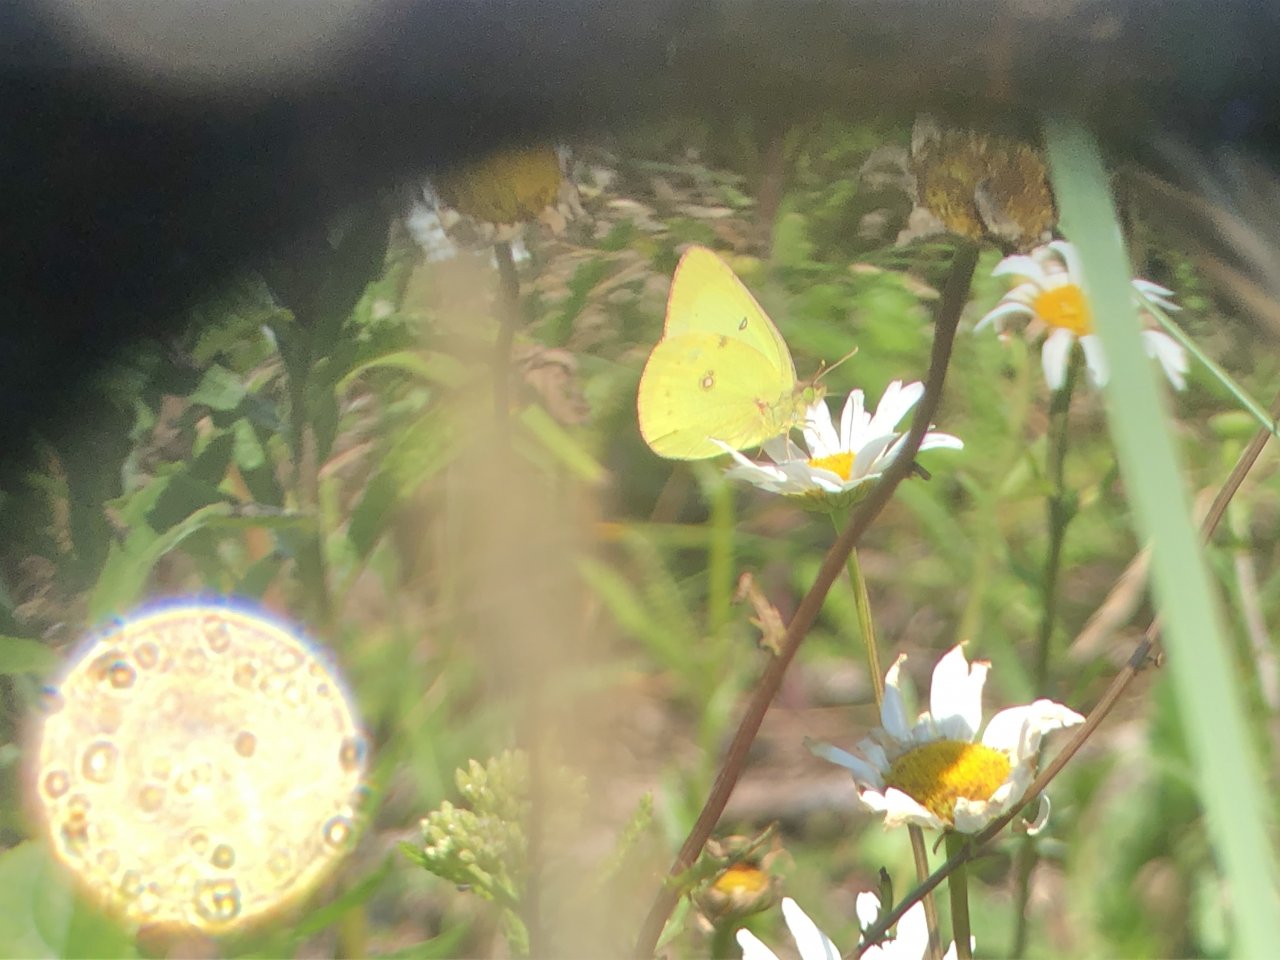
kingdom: Animalia
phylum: Arthropoda
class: Insecta
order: Lepidoptera
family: Pieridae
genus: Colias
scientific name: Colias philodice
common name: Clouded Sulphur
